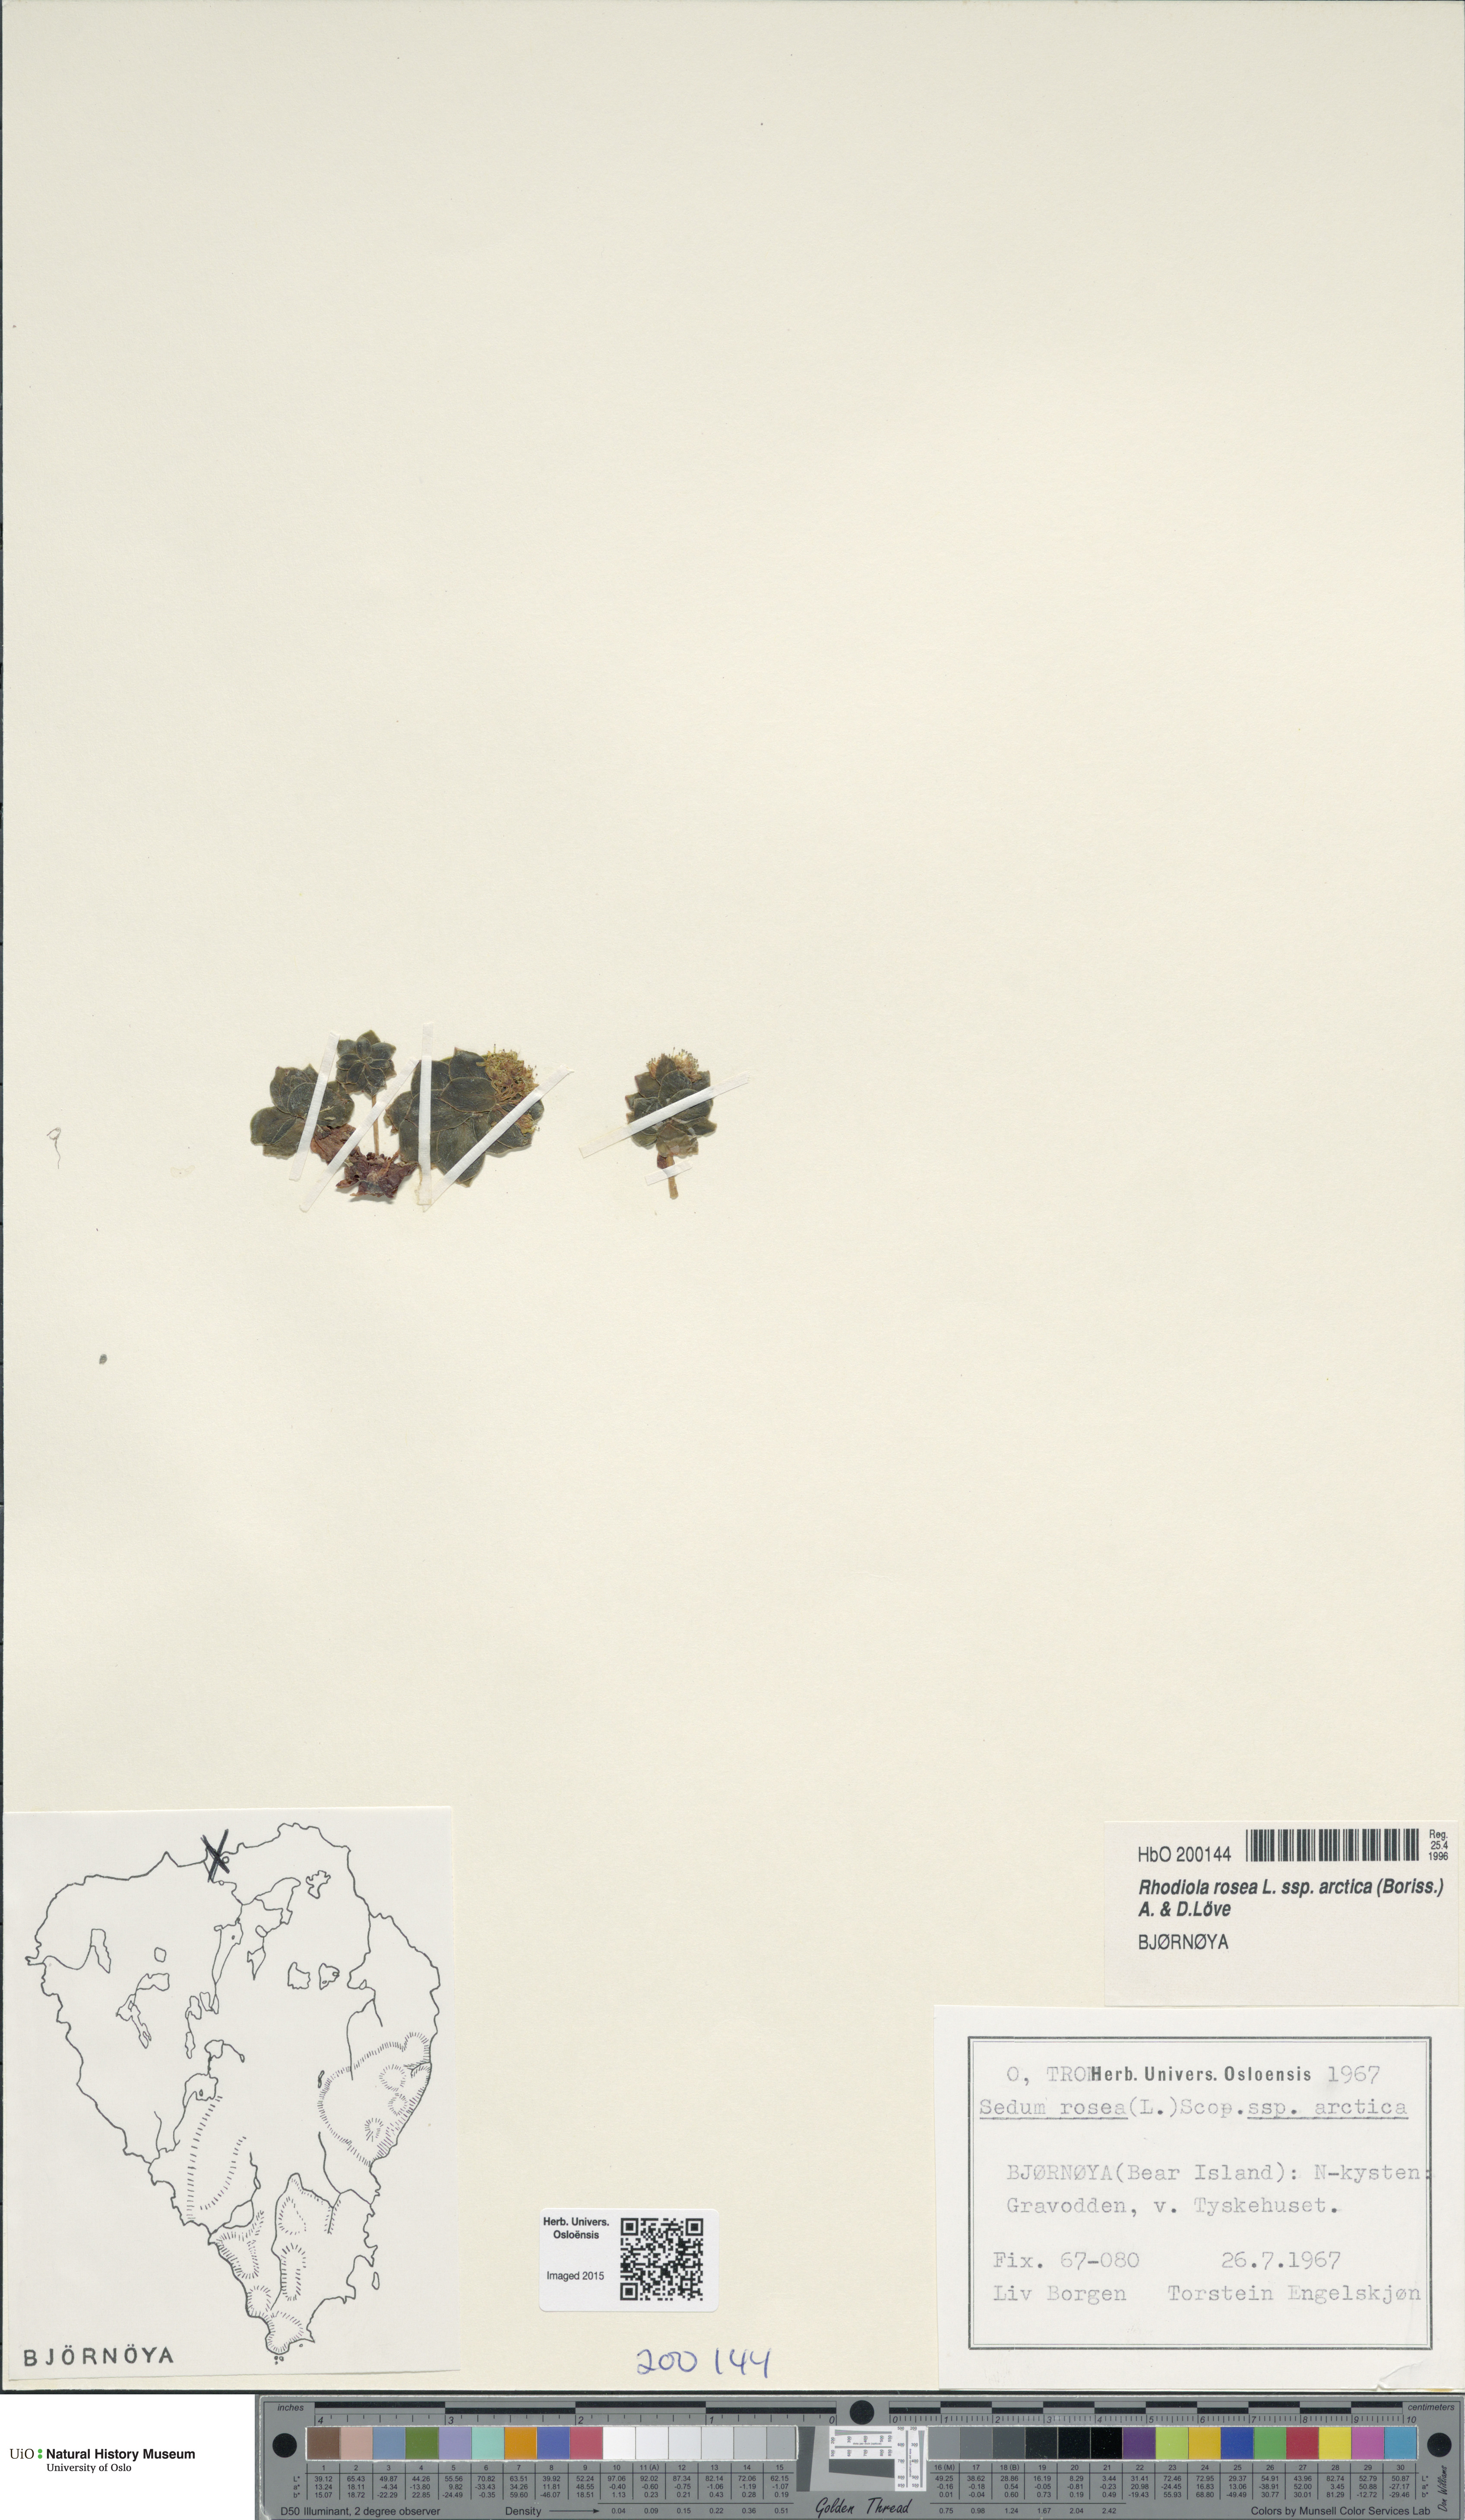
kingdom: Plantae
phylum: Tracheophyta
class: Magnoliopsida
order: Saxifragales
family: Crassulaceae
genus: Rhodiola
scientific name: Rhodiola rosea
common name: Roseroot
